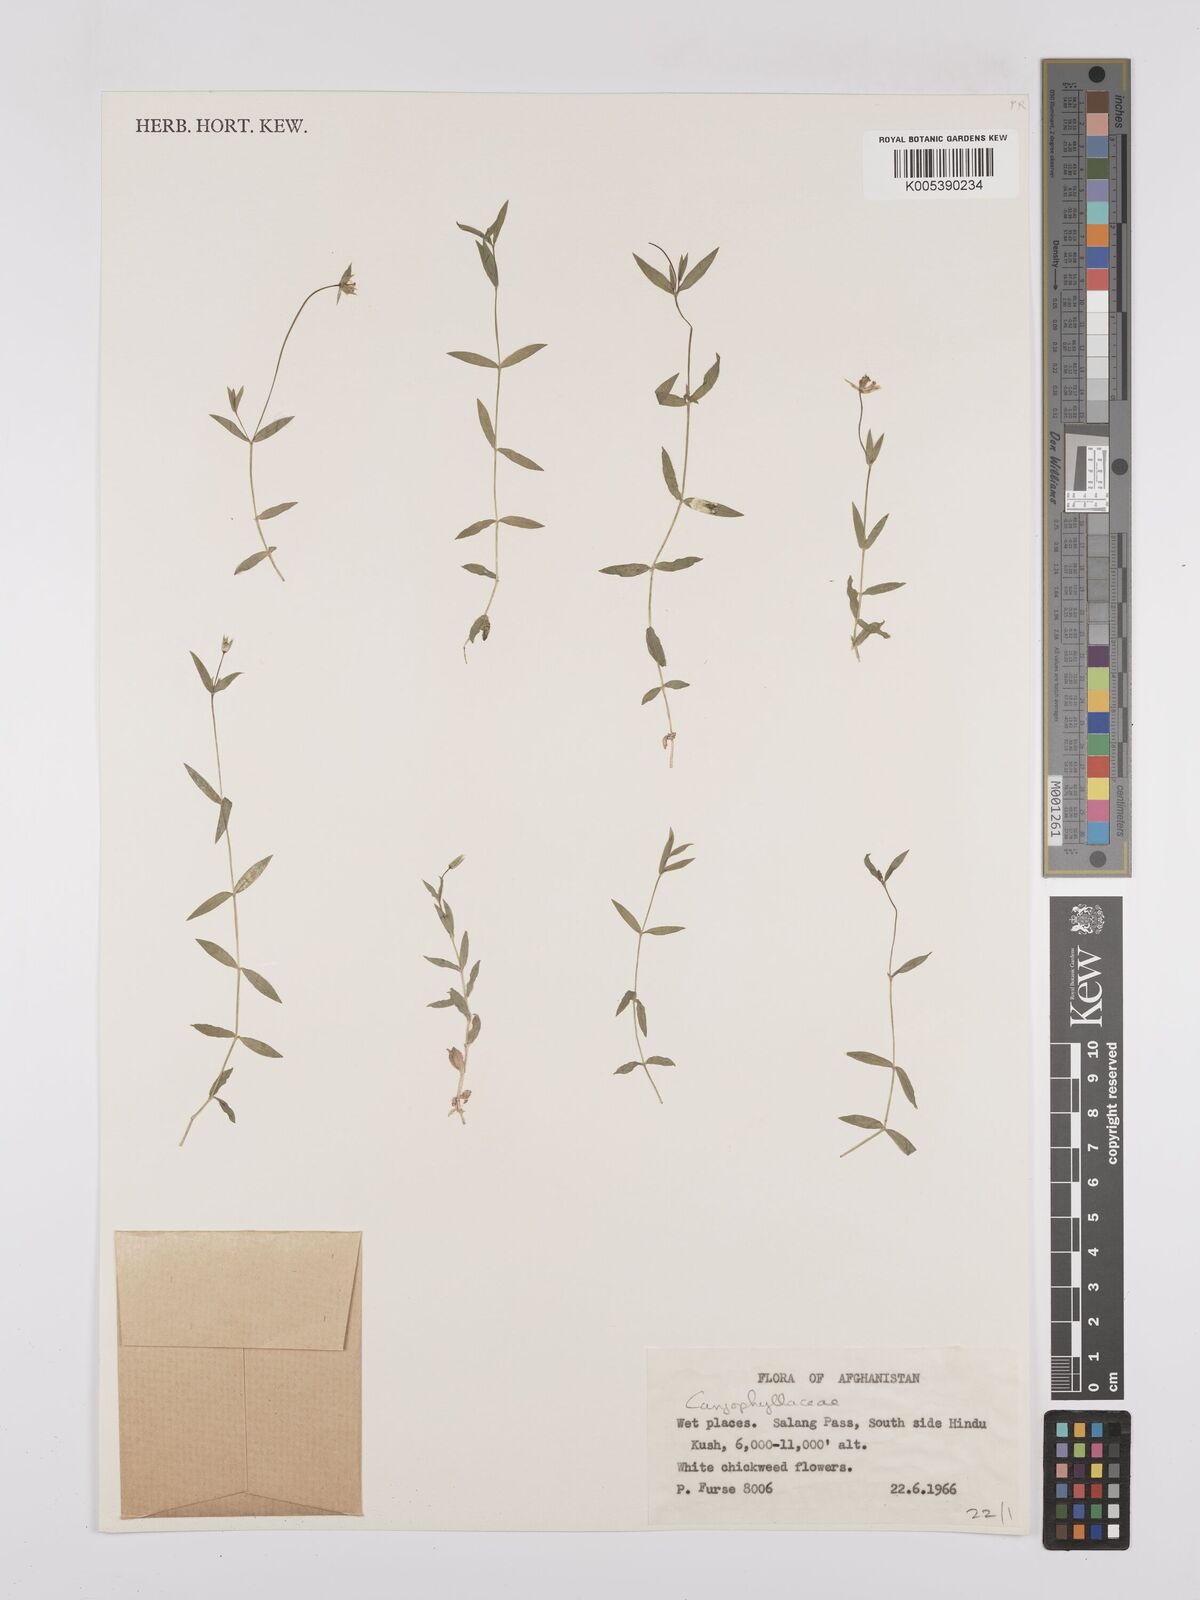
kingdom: Plantae
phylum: Tracheophyta
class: Magnoliopsida
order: Caryophyllales
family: Caryophyllaceae
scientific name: Caryophyllaceae
